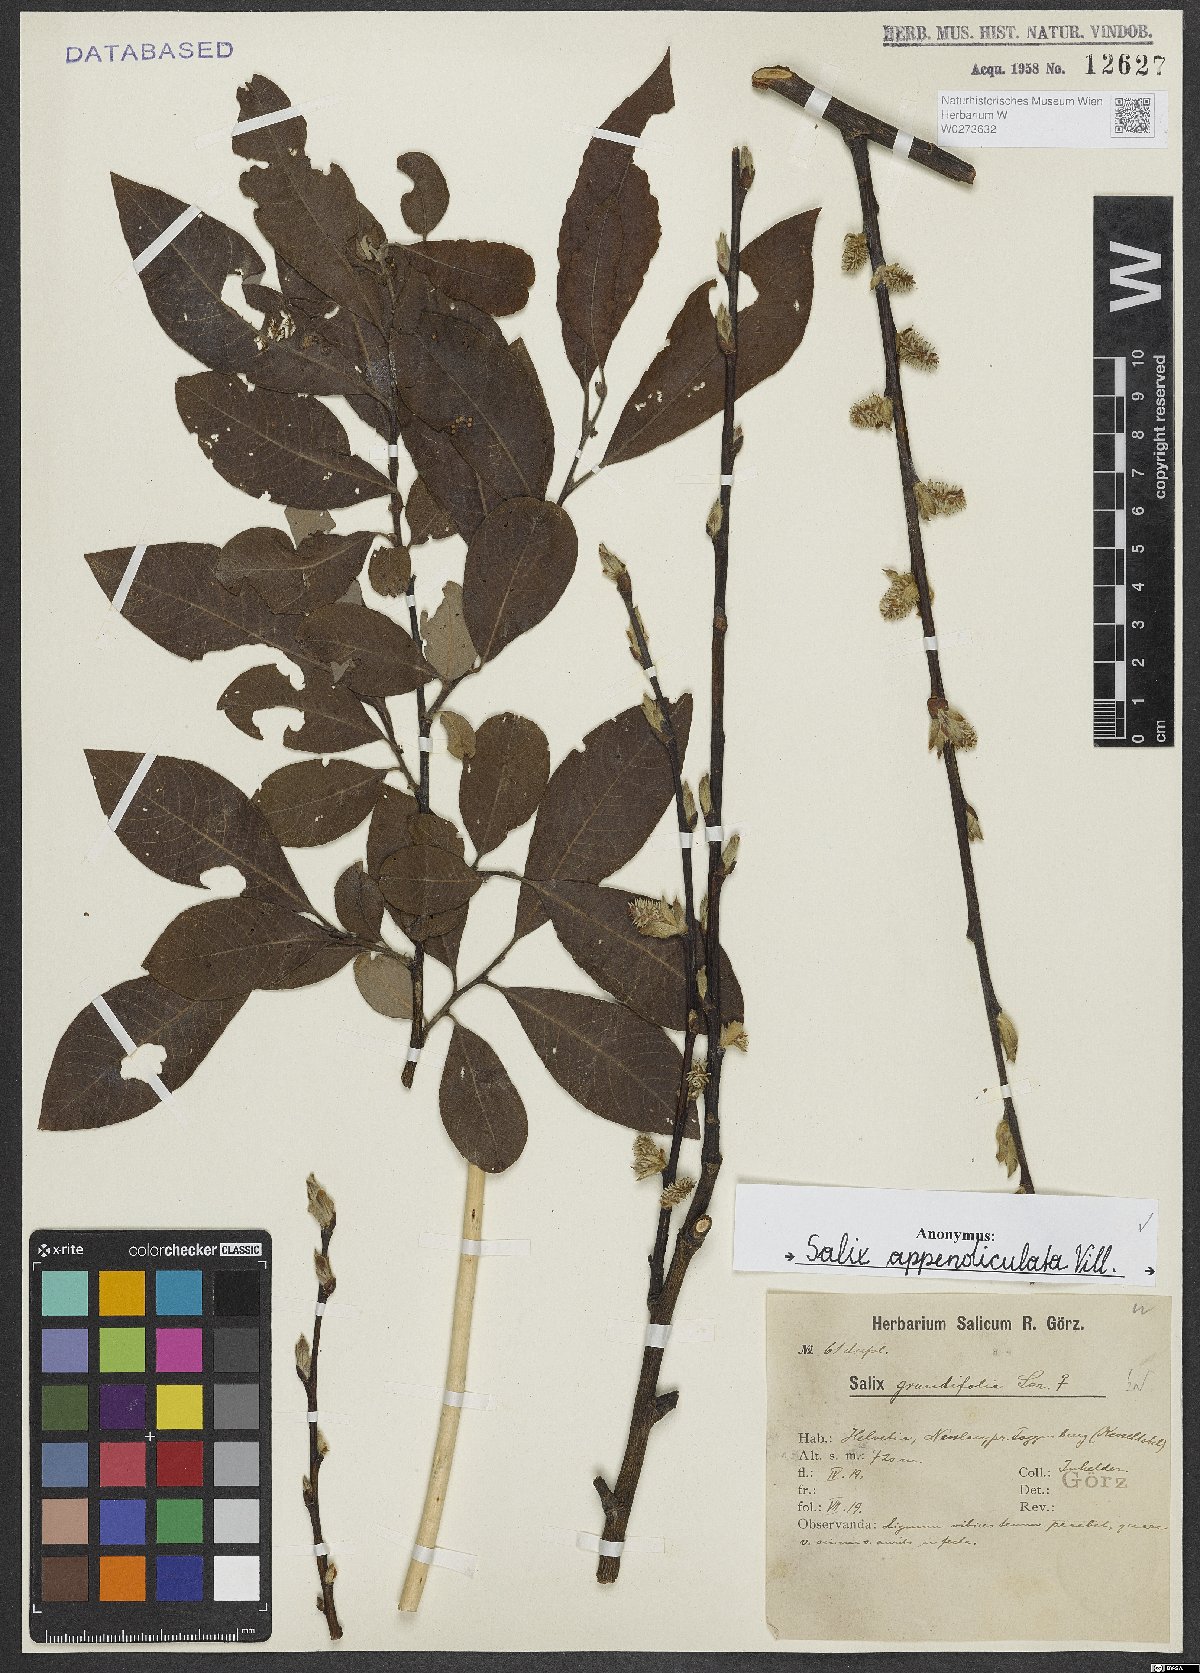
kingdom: Plantae
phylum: Tracheophyta
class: Magnoliopsida
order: Malpighiales
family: Salicaceae
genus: Salix
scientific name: Salix appendiculata
